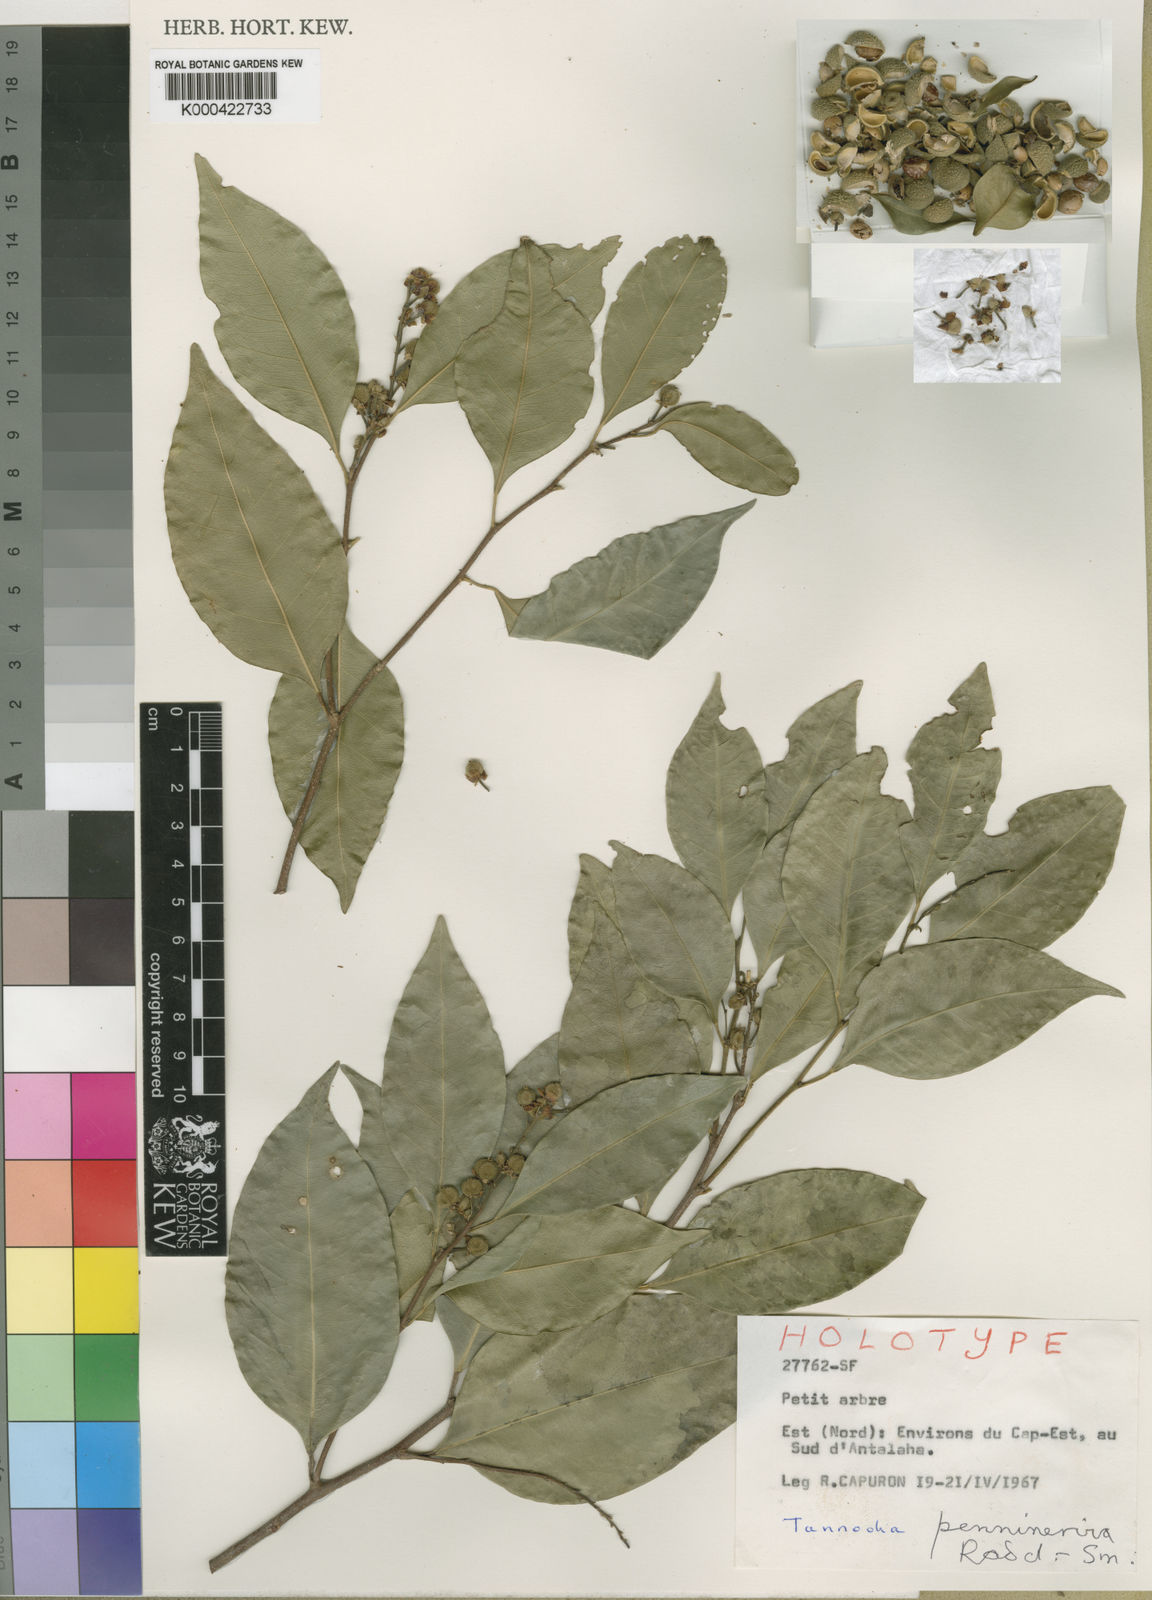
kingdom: Plantae
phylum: Tracheophyta
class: Magnoliopsida
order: Malpighiales
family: Euphorbiaceae
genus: Tannodia
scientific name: Tannodia pennivenia
